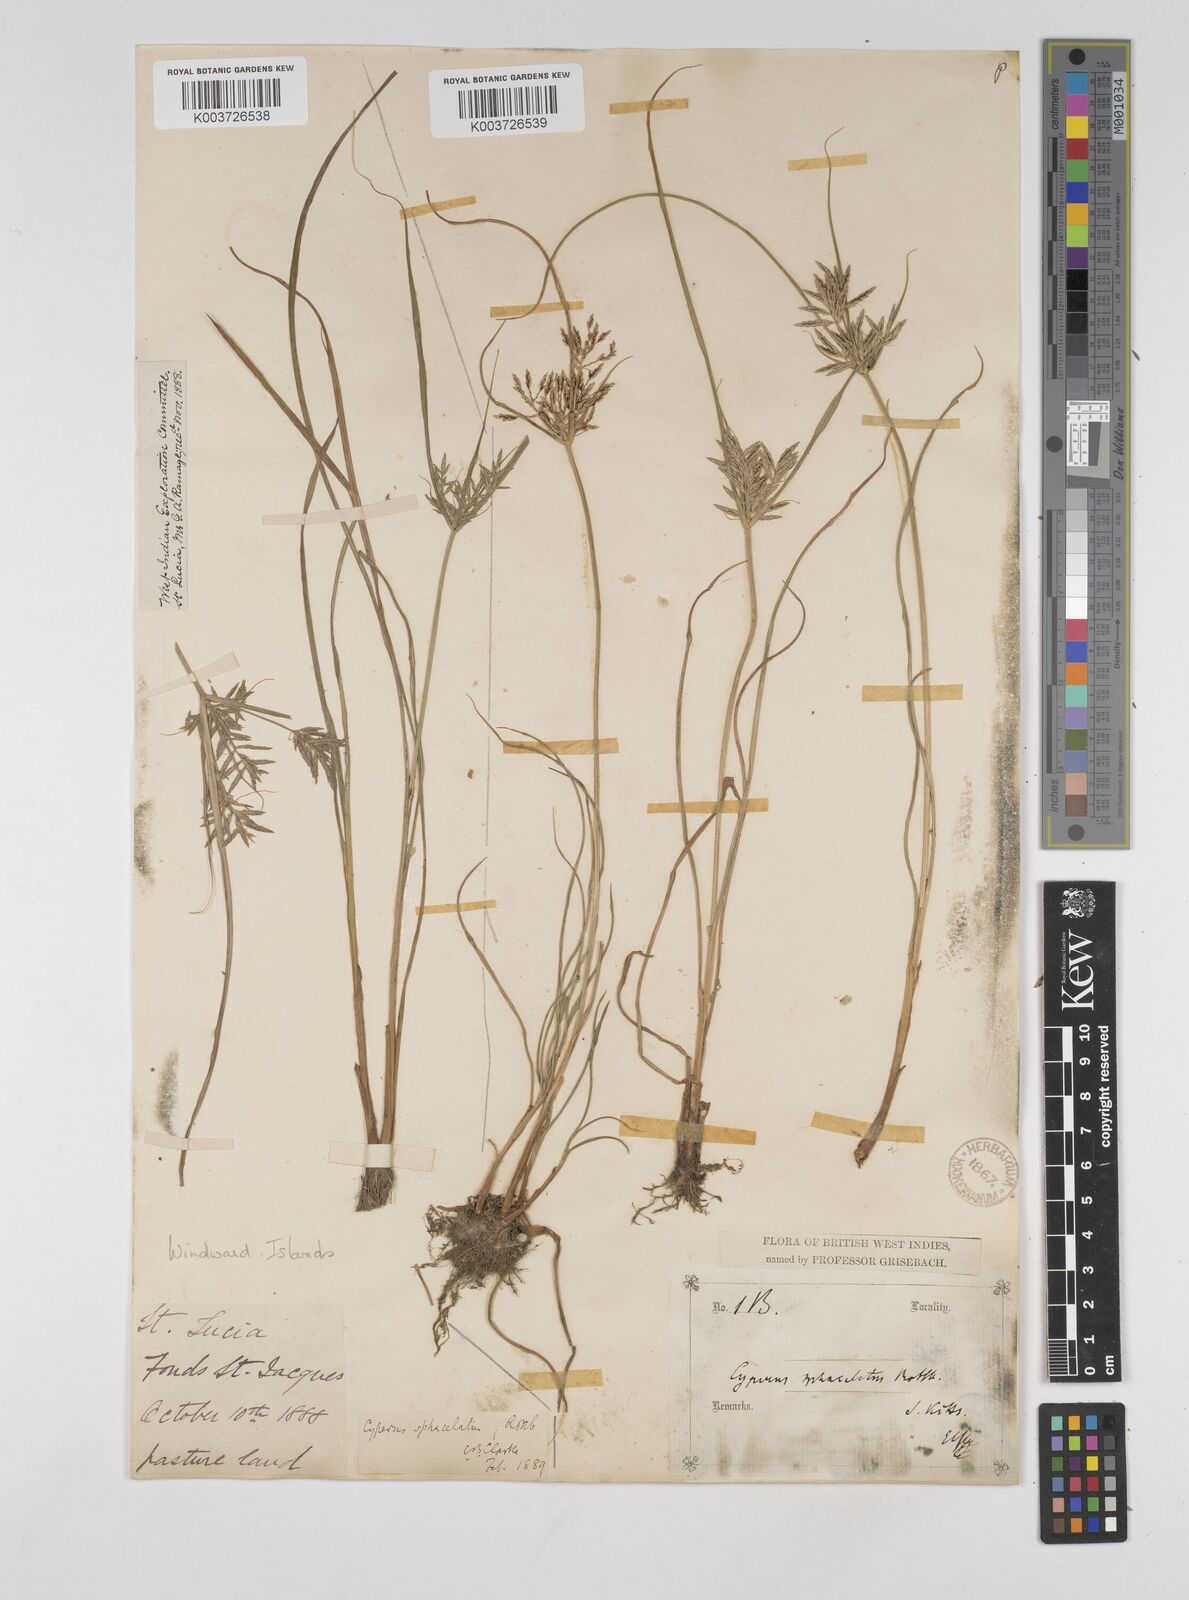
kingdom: Plantae
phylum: Tracheophyta
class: Liliopsida
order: Poales
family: Cyperaceae
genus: Cyperus
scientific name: Cyperus sphacelatus
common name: Roadside flatsedge
